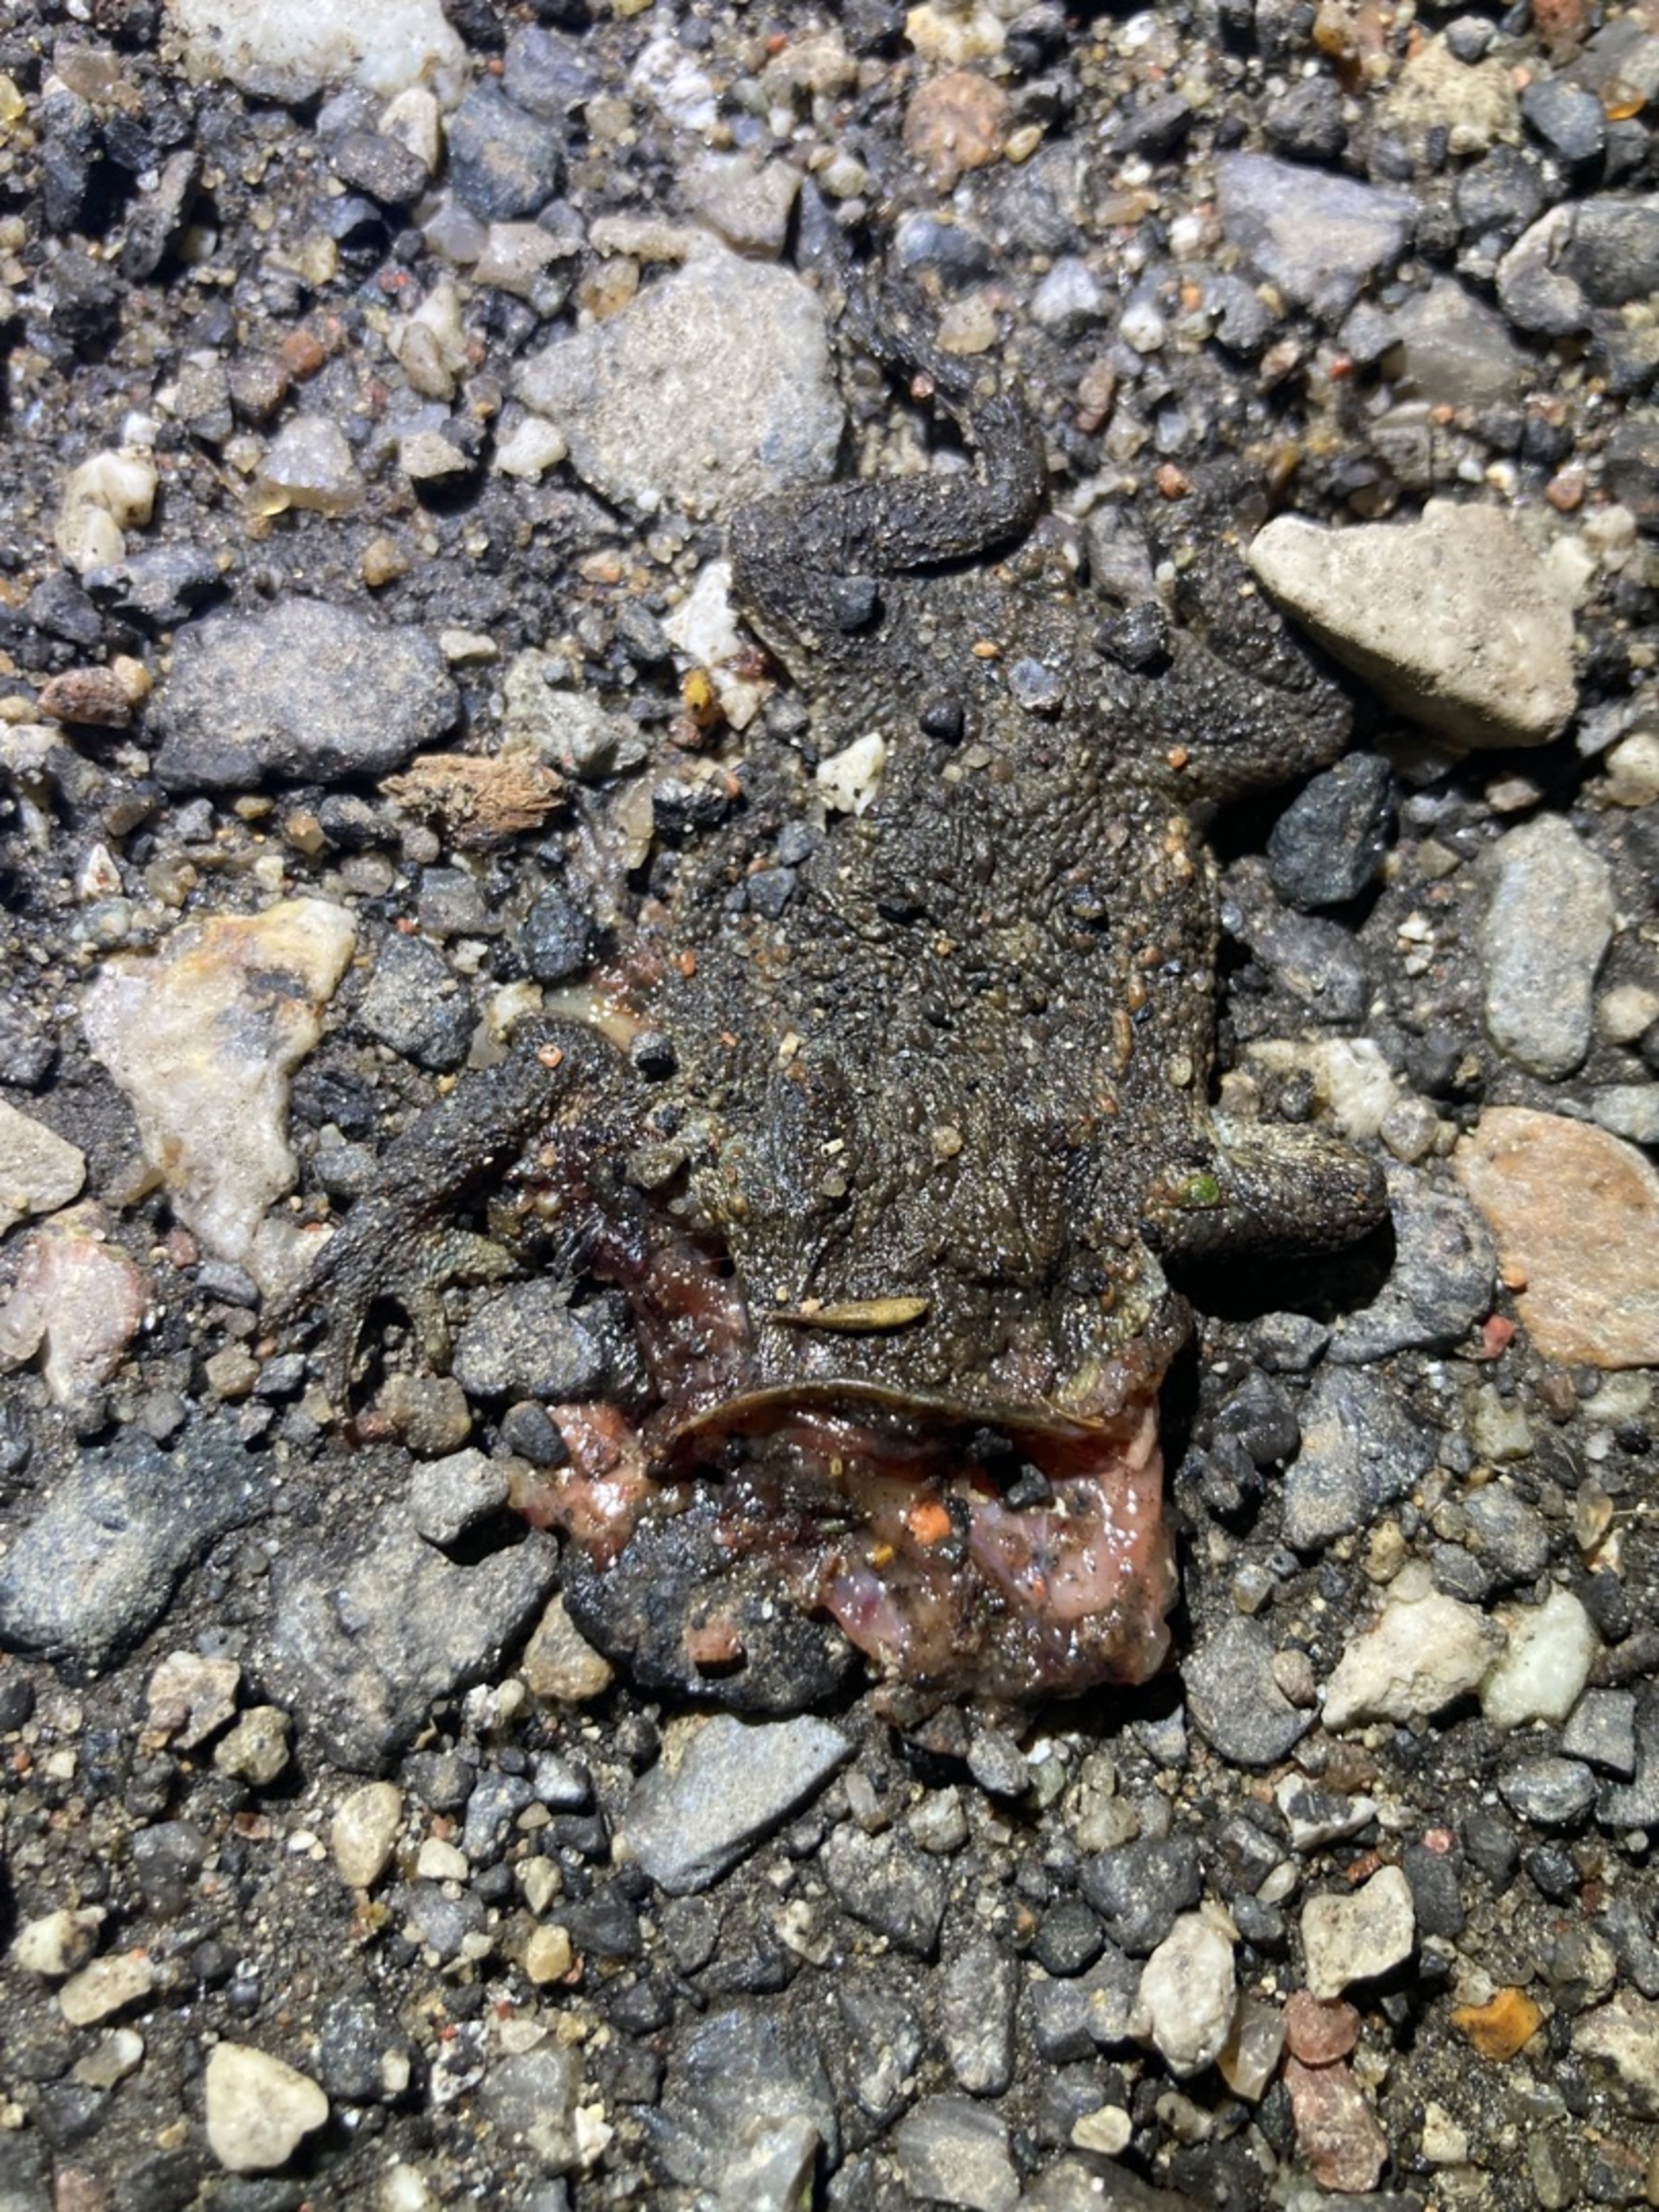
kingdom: Animalia
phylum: Chordata
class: Amphibia
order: Anura
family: Bufonidae
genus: Bufo
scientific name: Bufo bufo
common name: Skrubtudse
